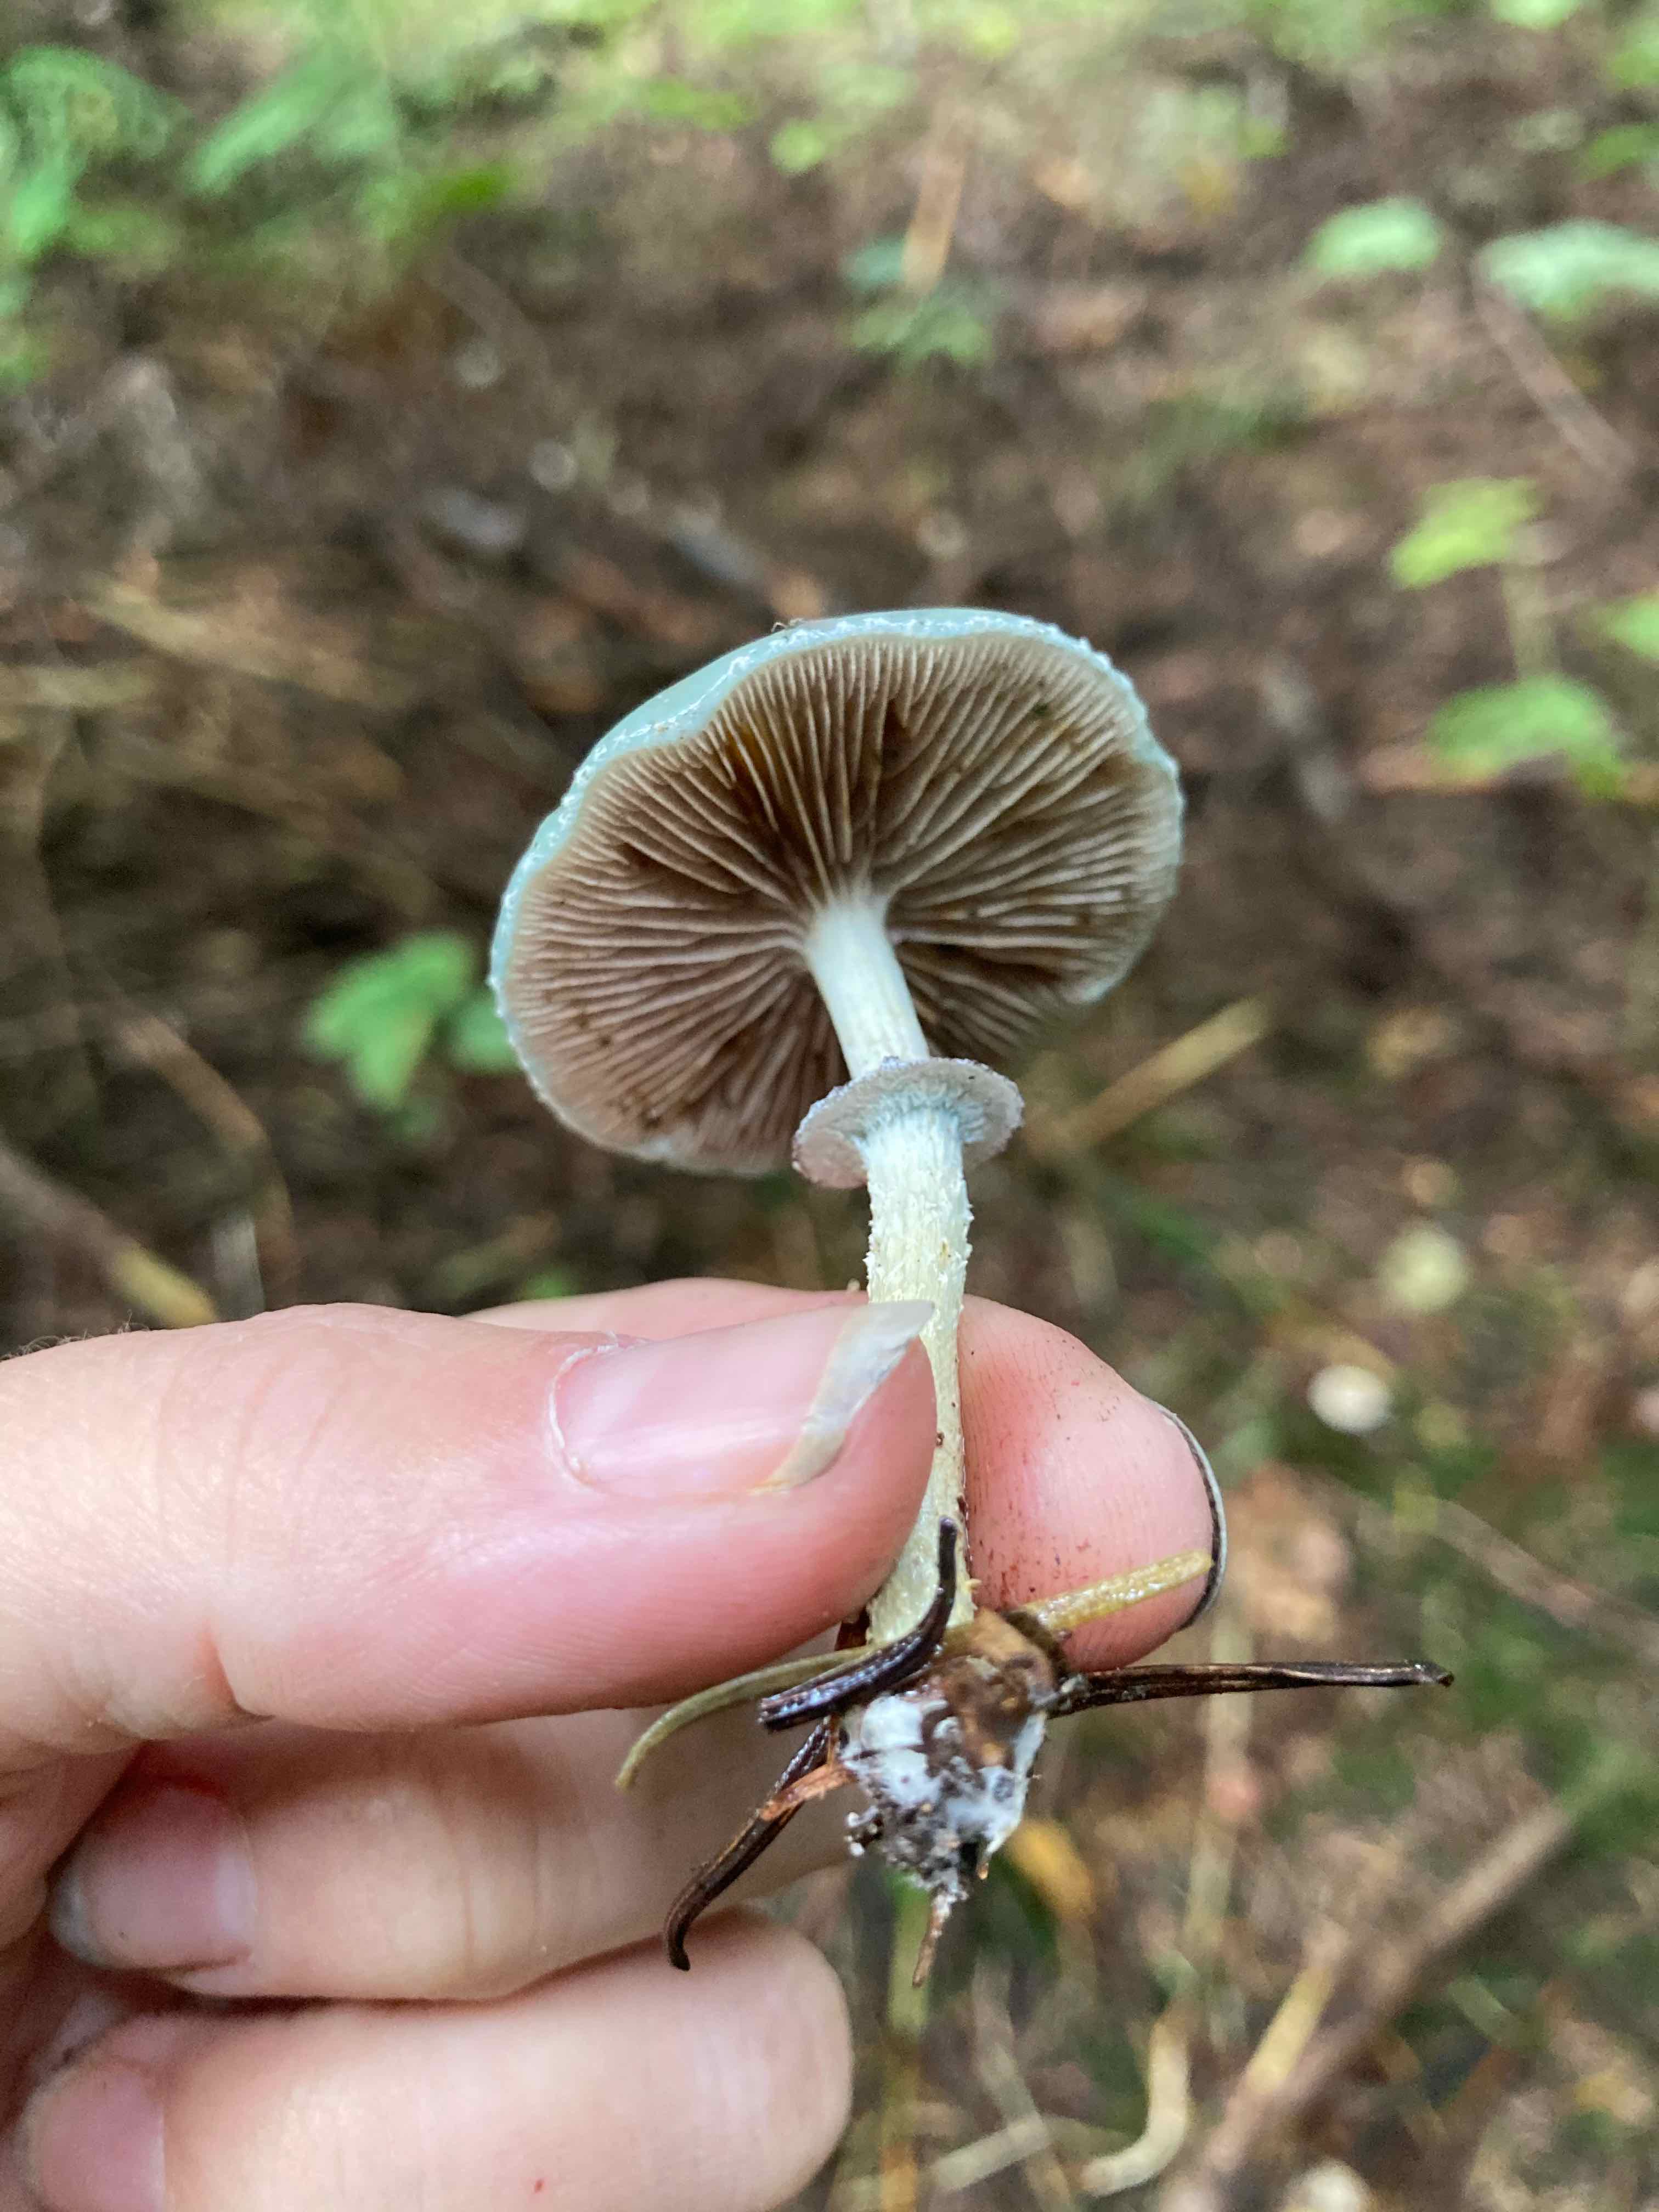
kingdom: Fungi
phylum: Basidiomycota
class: Agaricomycetes
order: Agaricales
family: Strophariaceae
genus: Stropharia
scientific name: Stropharia aeruginosa
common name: spanskgrøn bredblad
